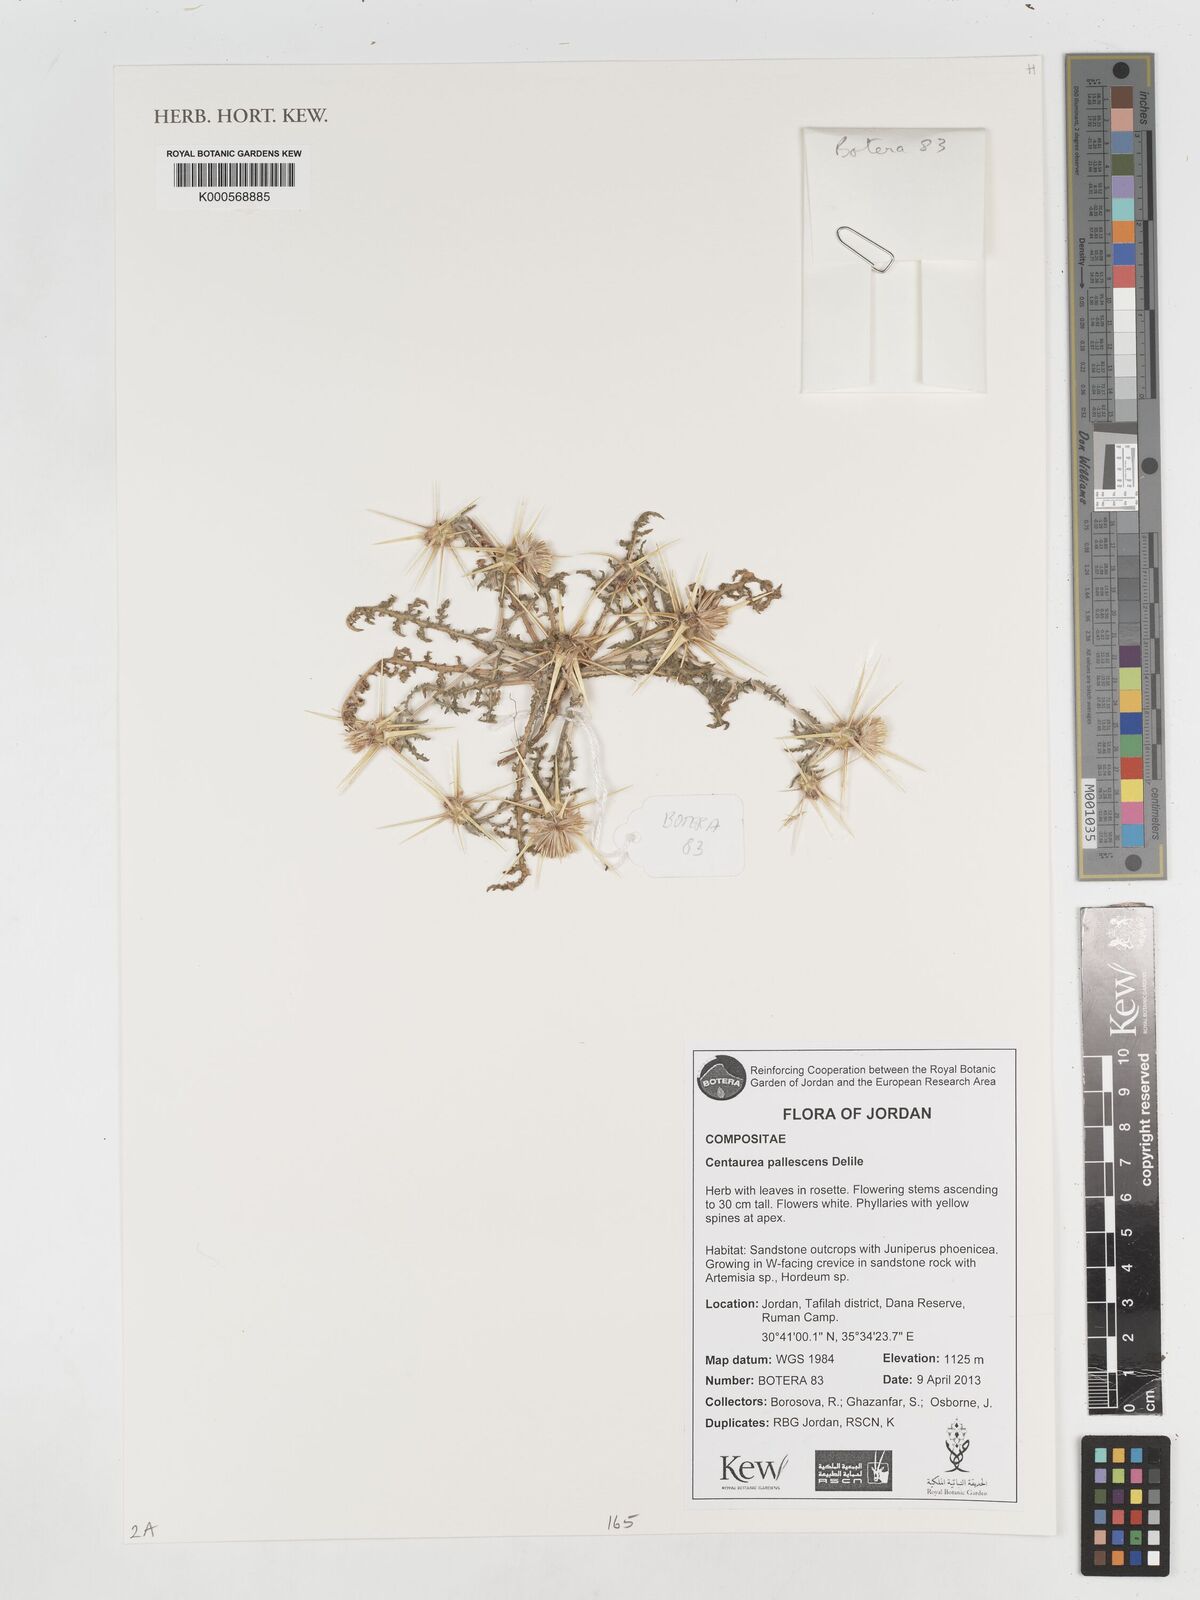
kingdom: Plantae
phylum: Tracheophyta
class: Magnoliopsida
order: Asterales
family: Asteraceae
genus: Centaurea
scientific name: Centaurea pallescens
